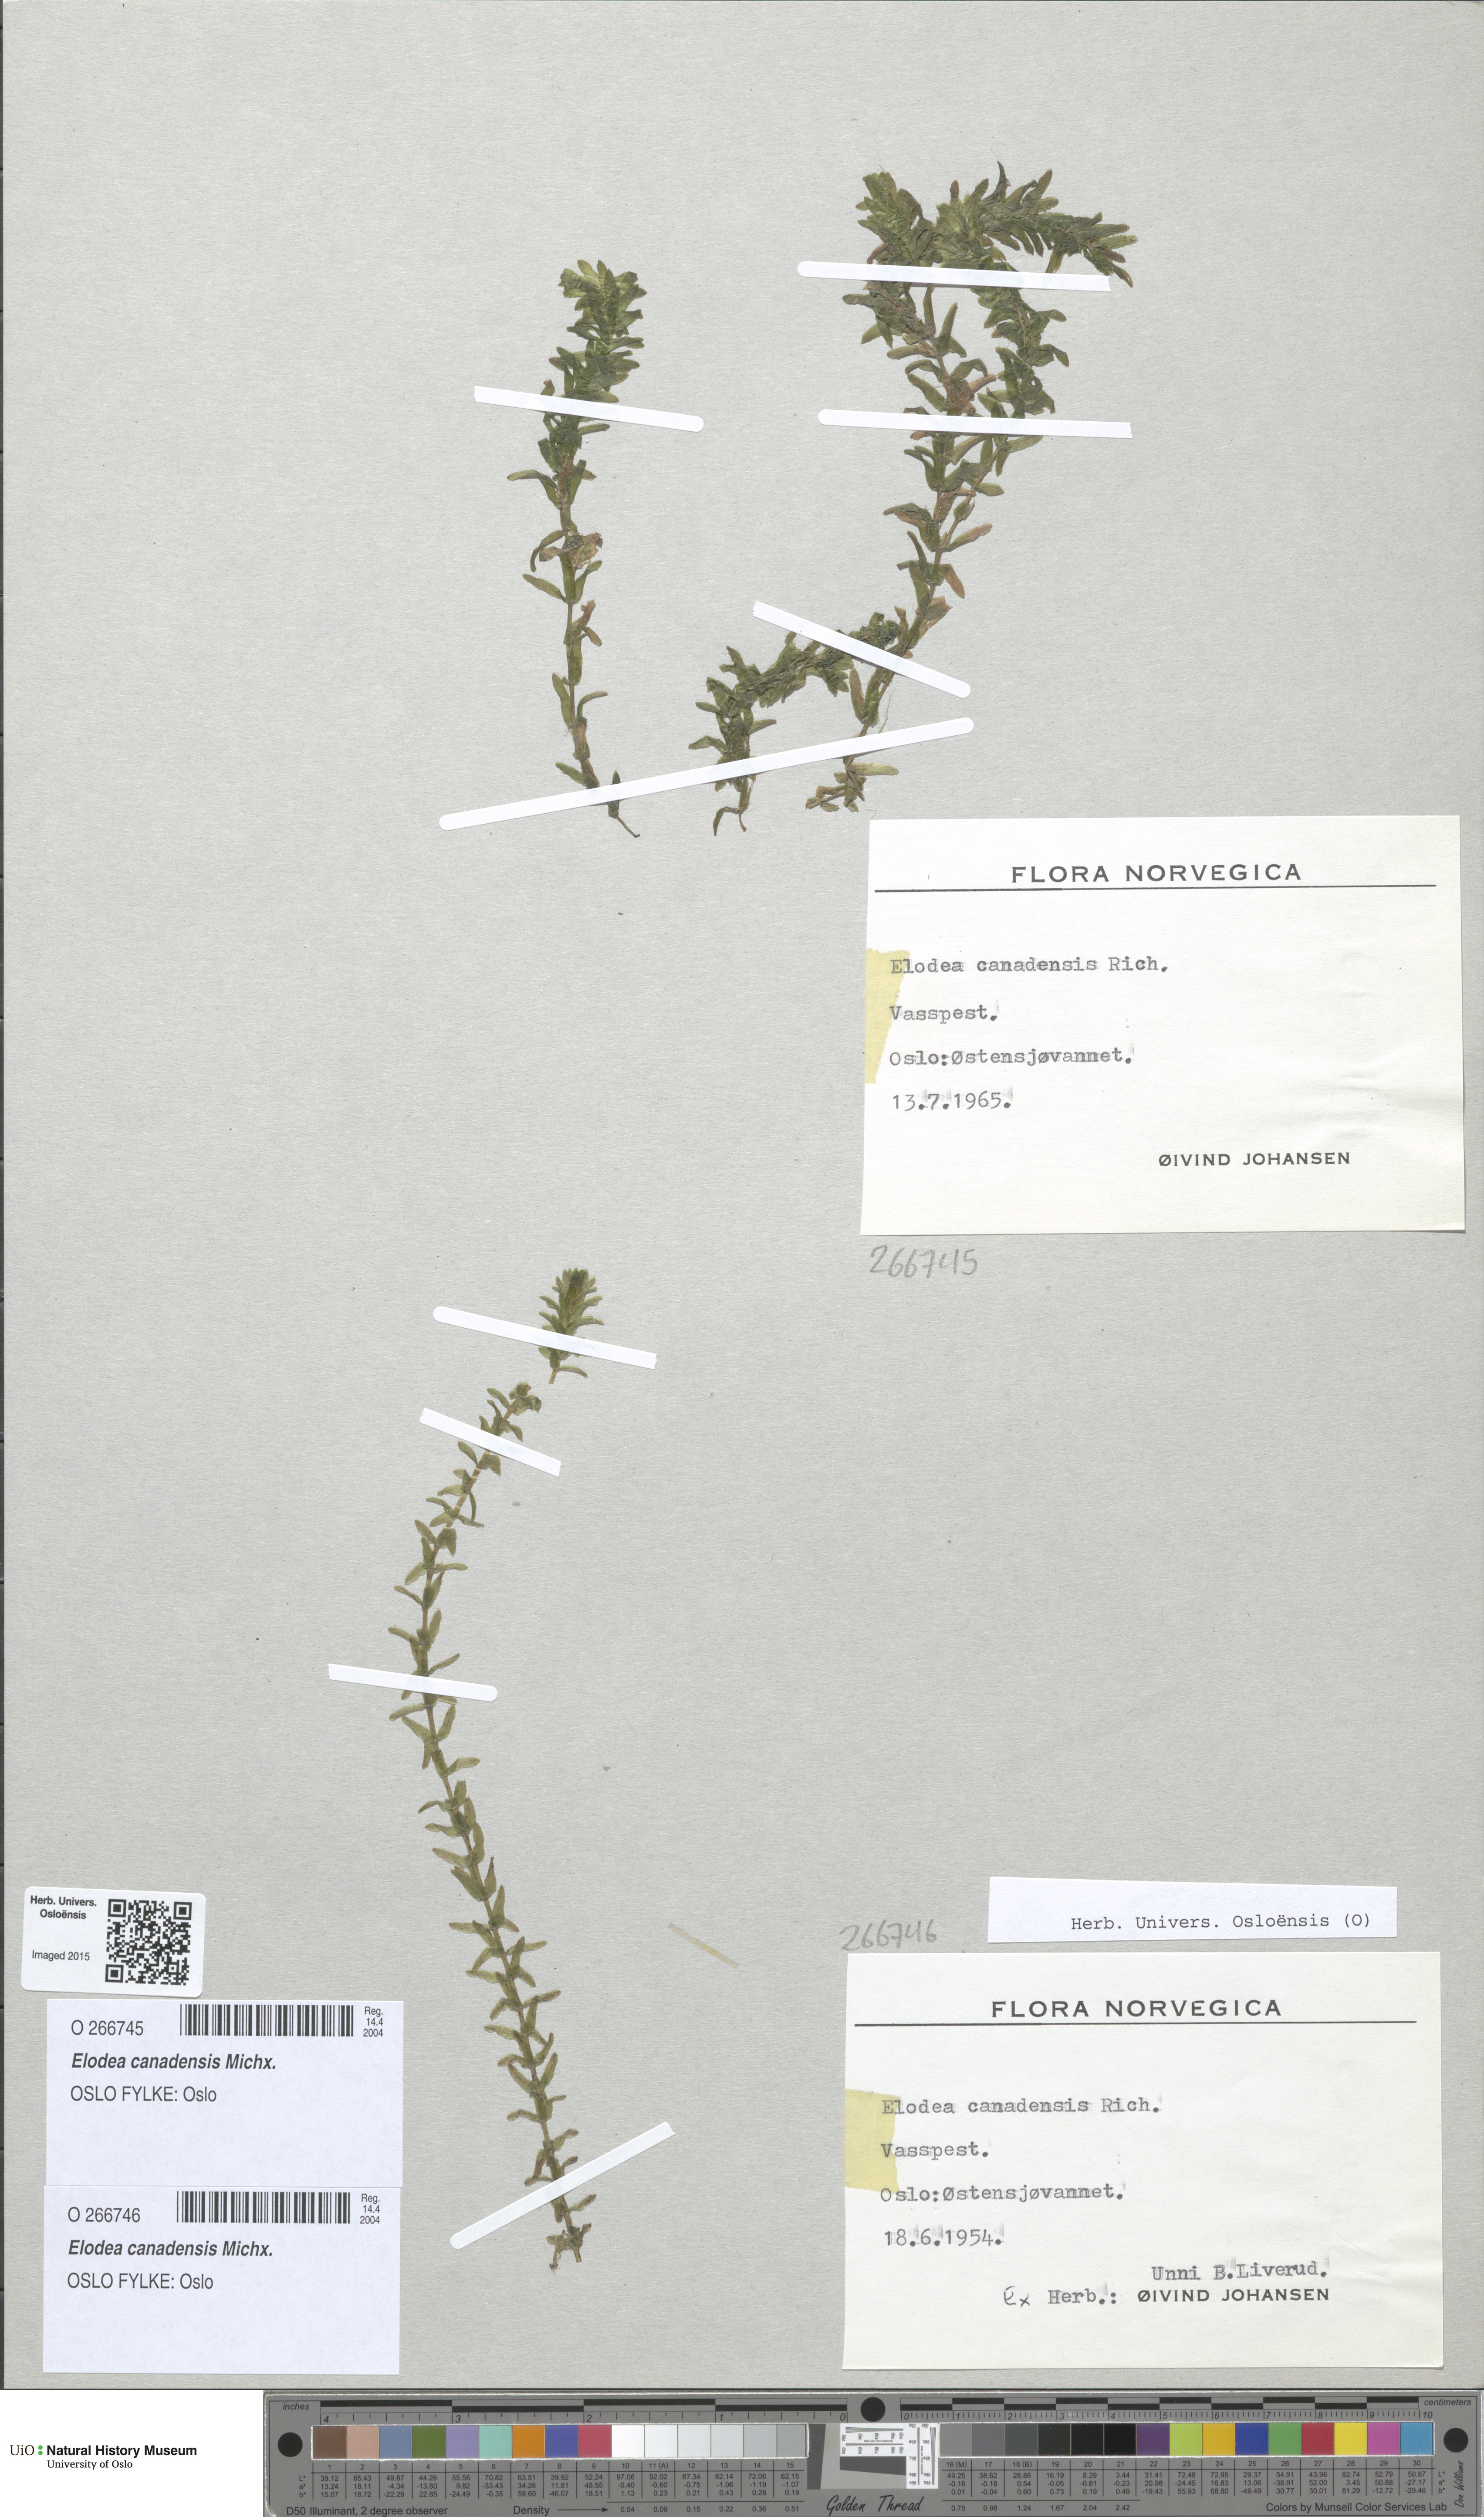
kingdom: Plantae
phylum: Tracheophyta
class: Liliopsida
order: Alismatales
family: Hydrocharitaceae
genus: Elodea
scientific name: Elodea canadensis
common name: Canadian waterweed
